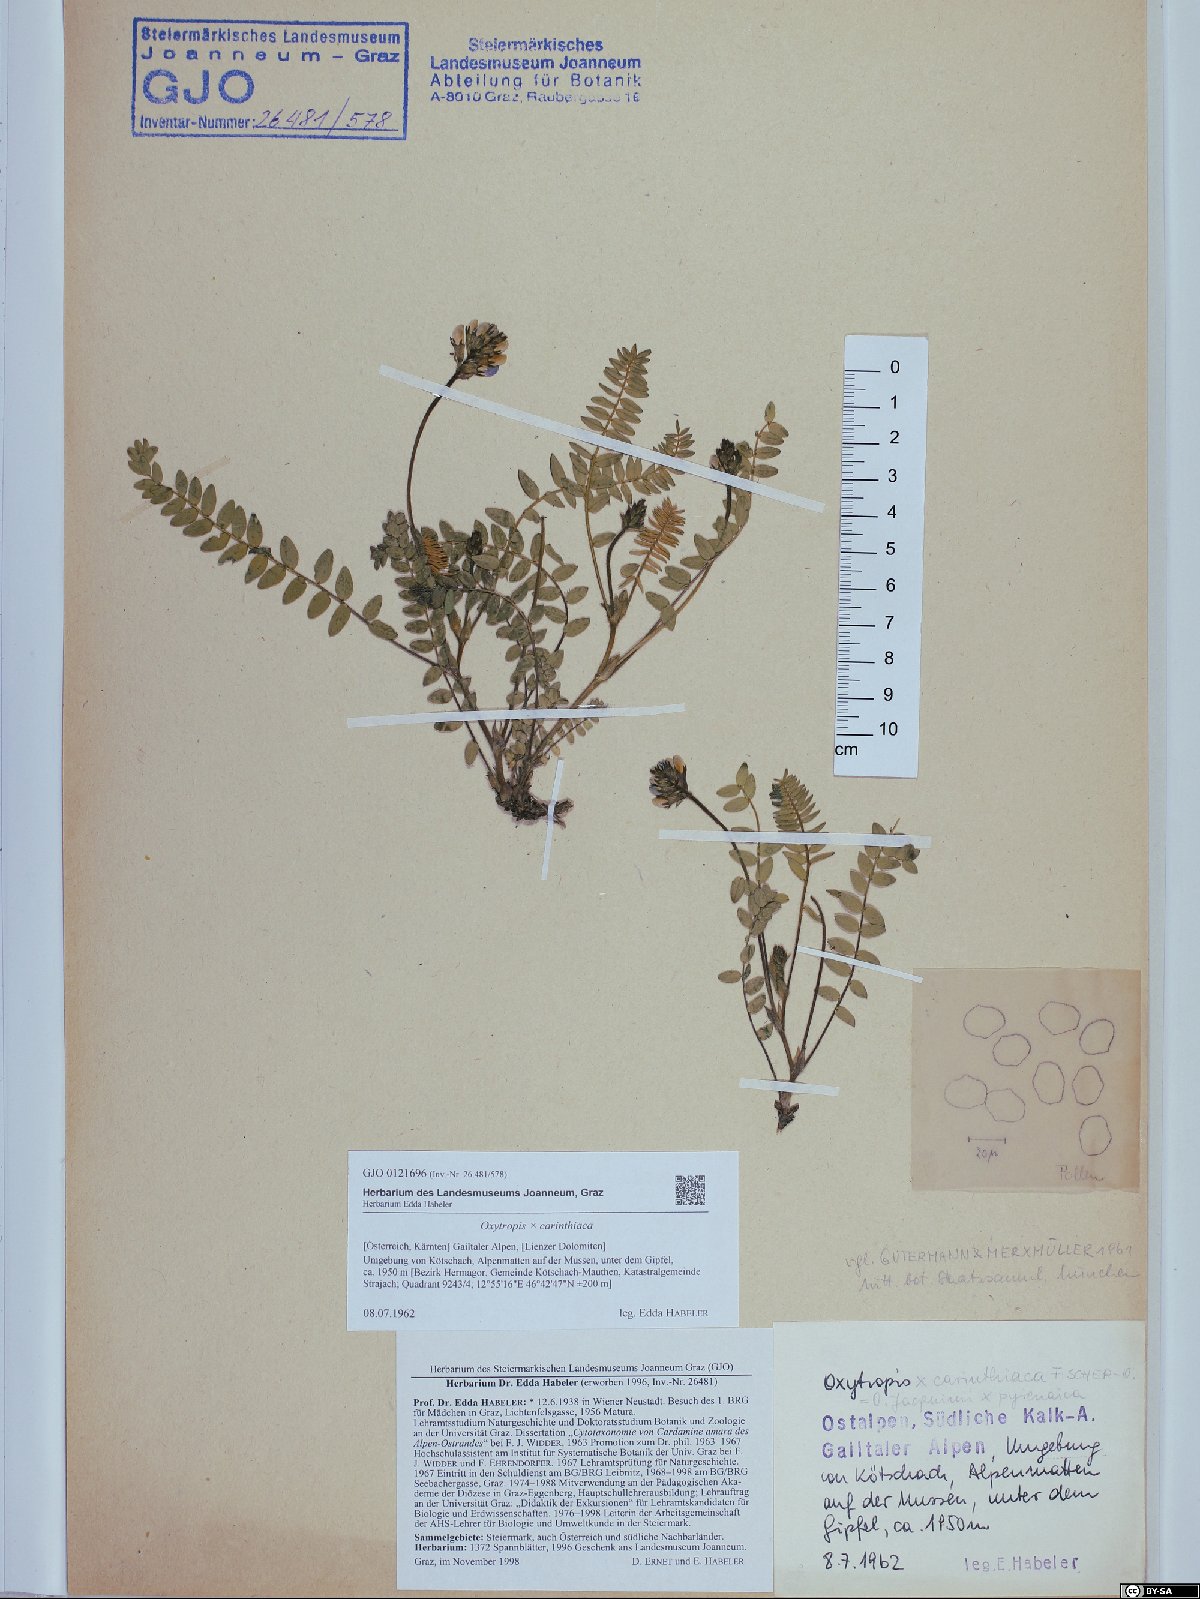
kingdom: Plantae
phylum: Tracheophyta
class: Magnoliopsida
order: Fabales
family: Fabaceae
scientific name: Fabaceae
